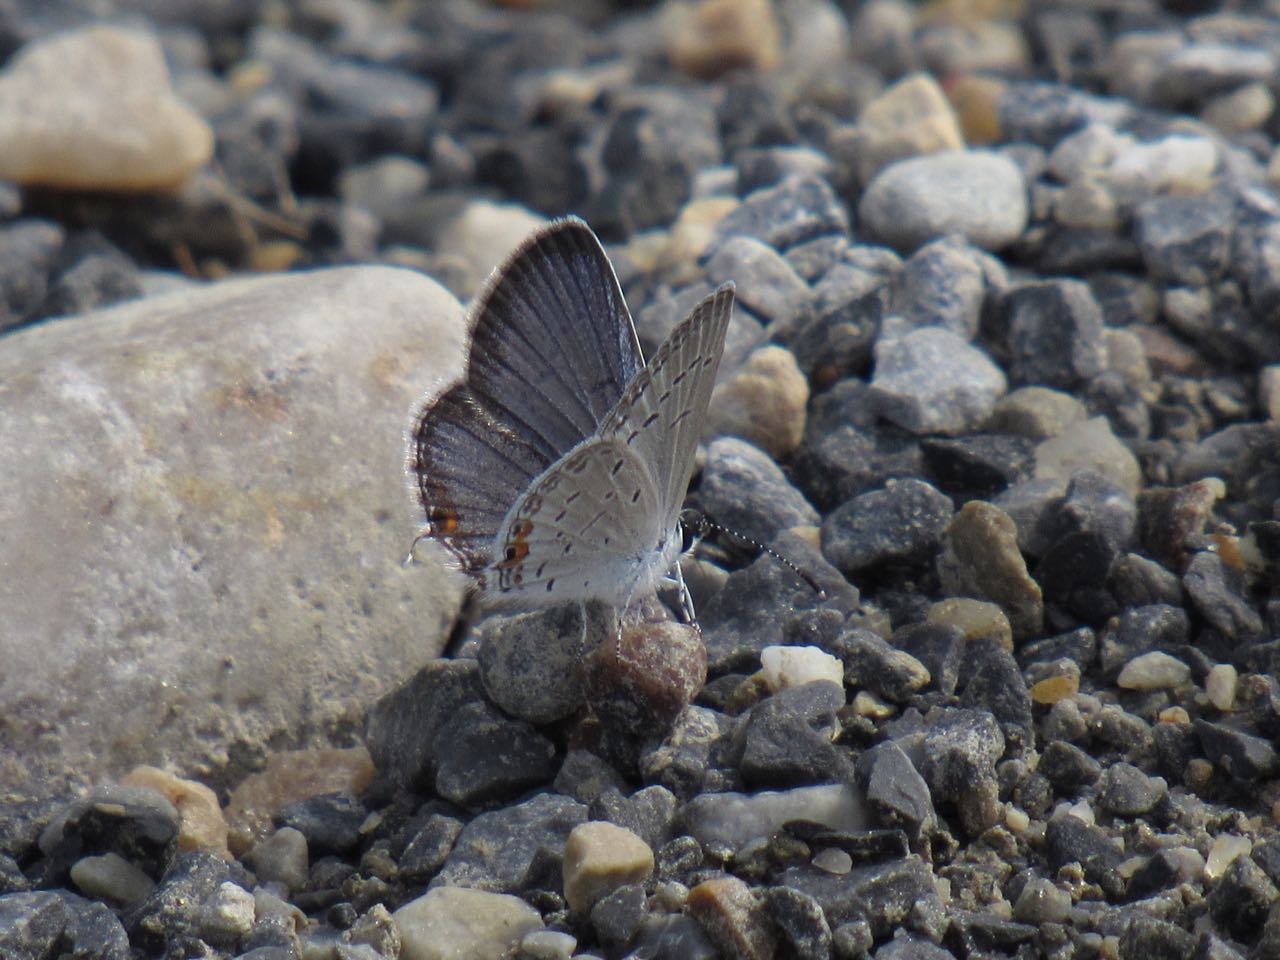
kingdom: Animalia
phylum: Arthropoda
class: Insecta
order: Lepidoptera
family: Lycaenidae
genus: Elkalyce
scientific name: Elkalyce comyntas
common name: Eastern Tailed-Blue
